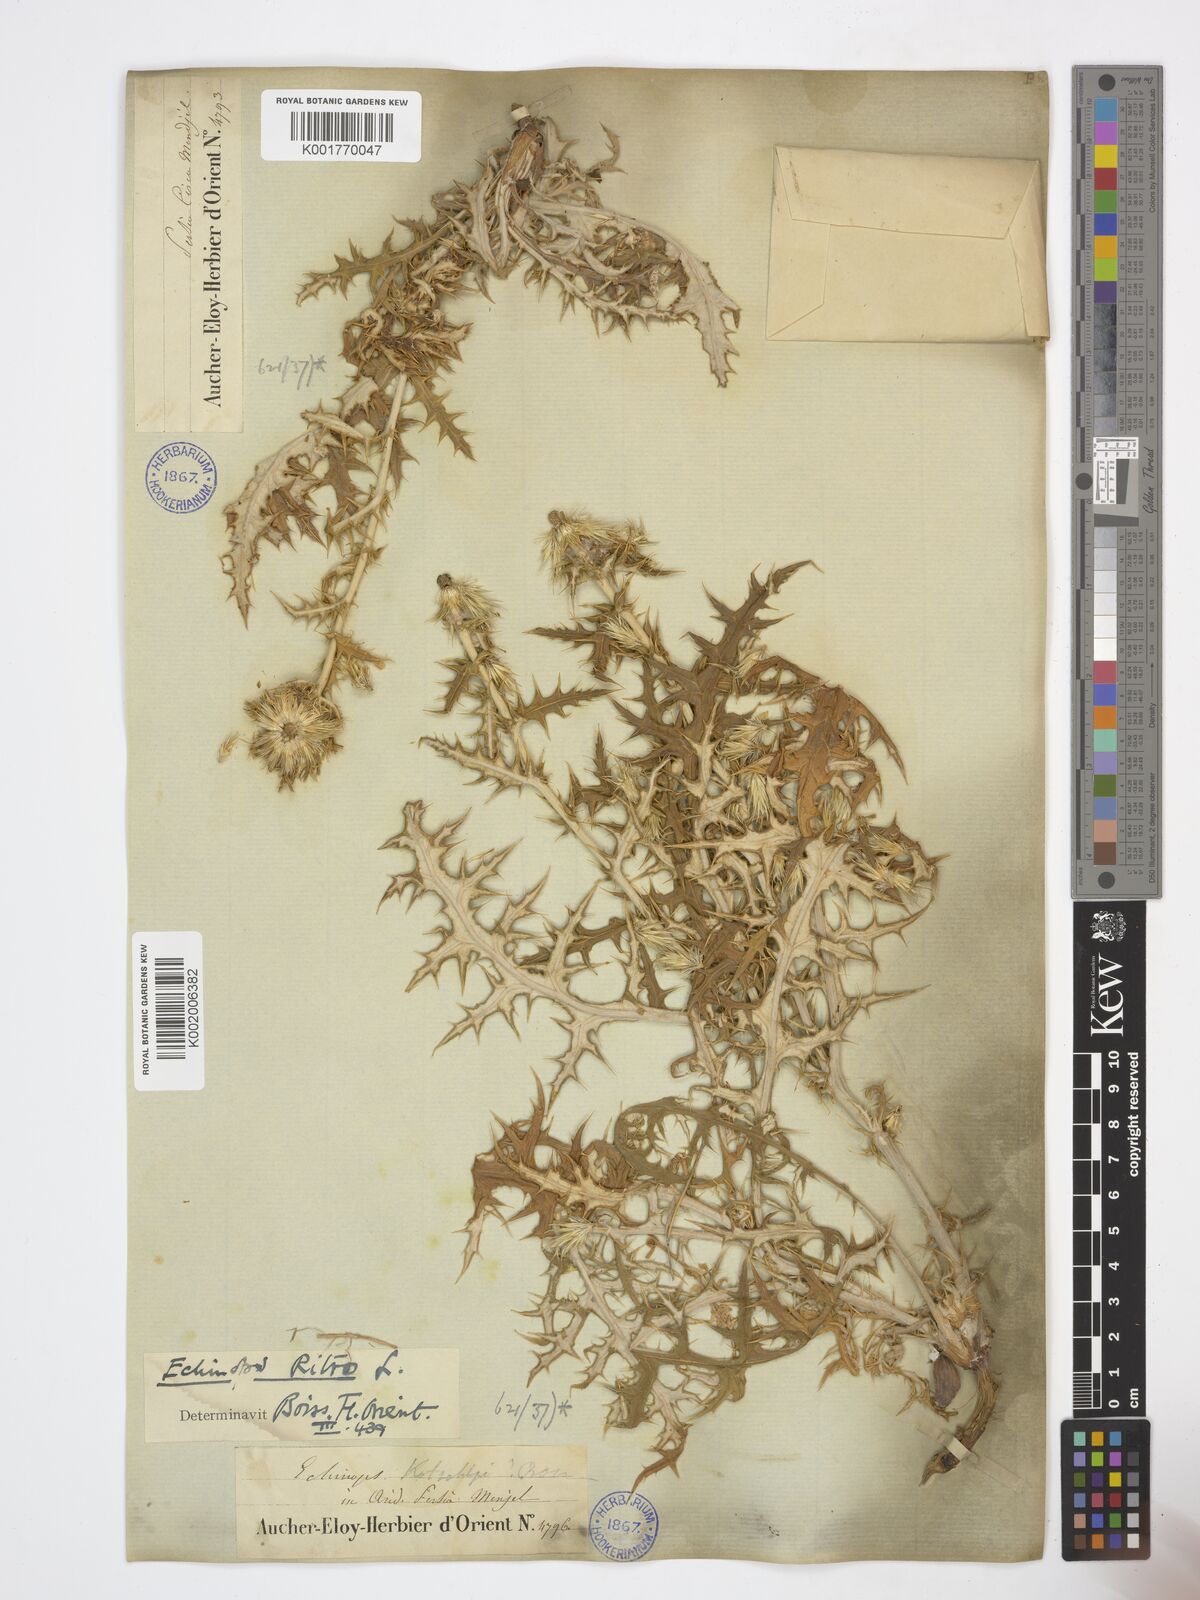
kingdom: Plantae
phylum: Tracheophyta
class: Magnoliopsida
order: Asterales
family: Asteraceae
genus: Echinops
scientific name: Echinops ritro
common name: Globe thistle
